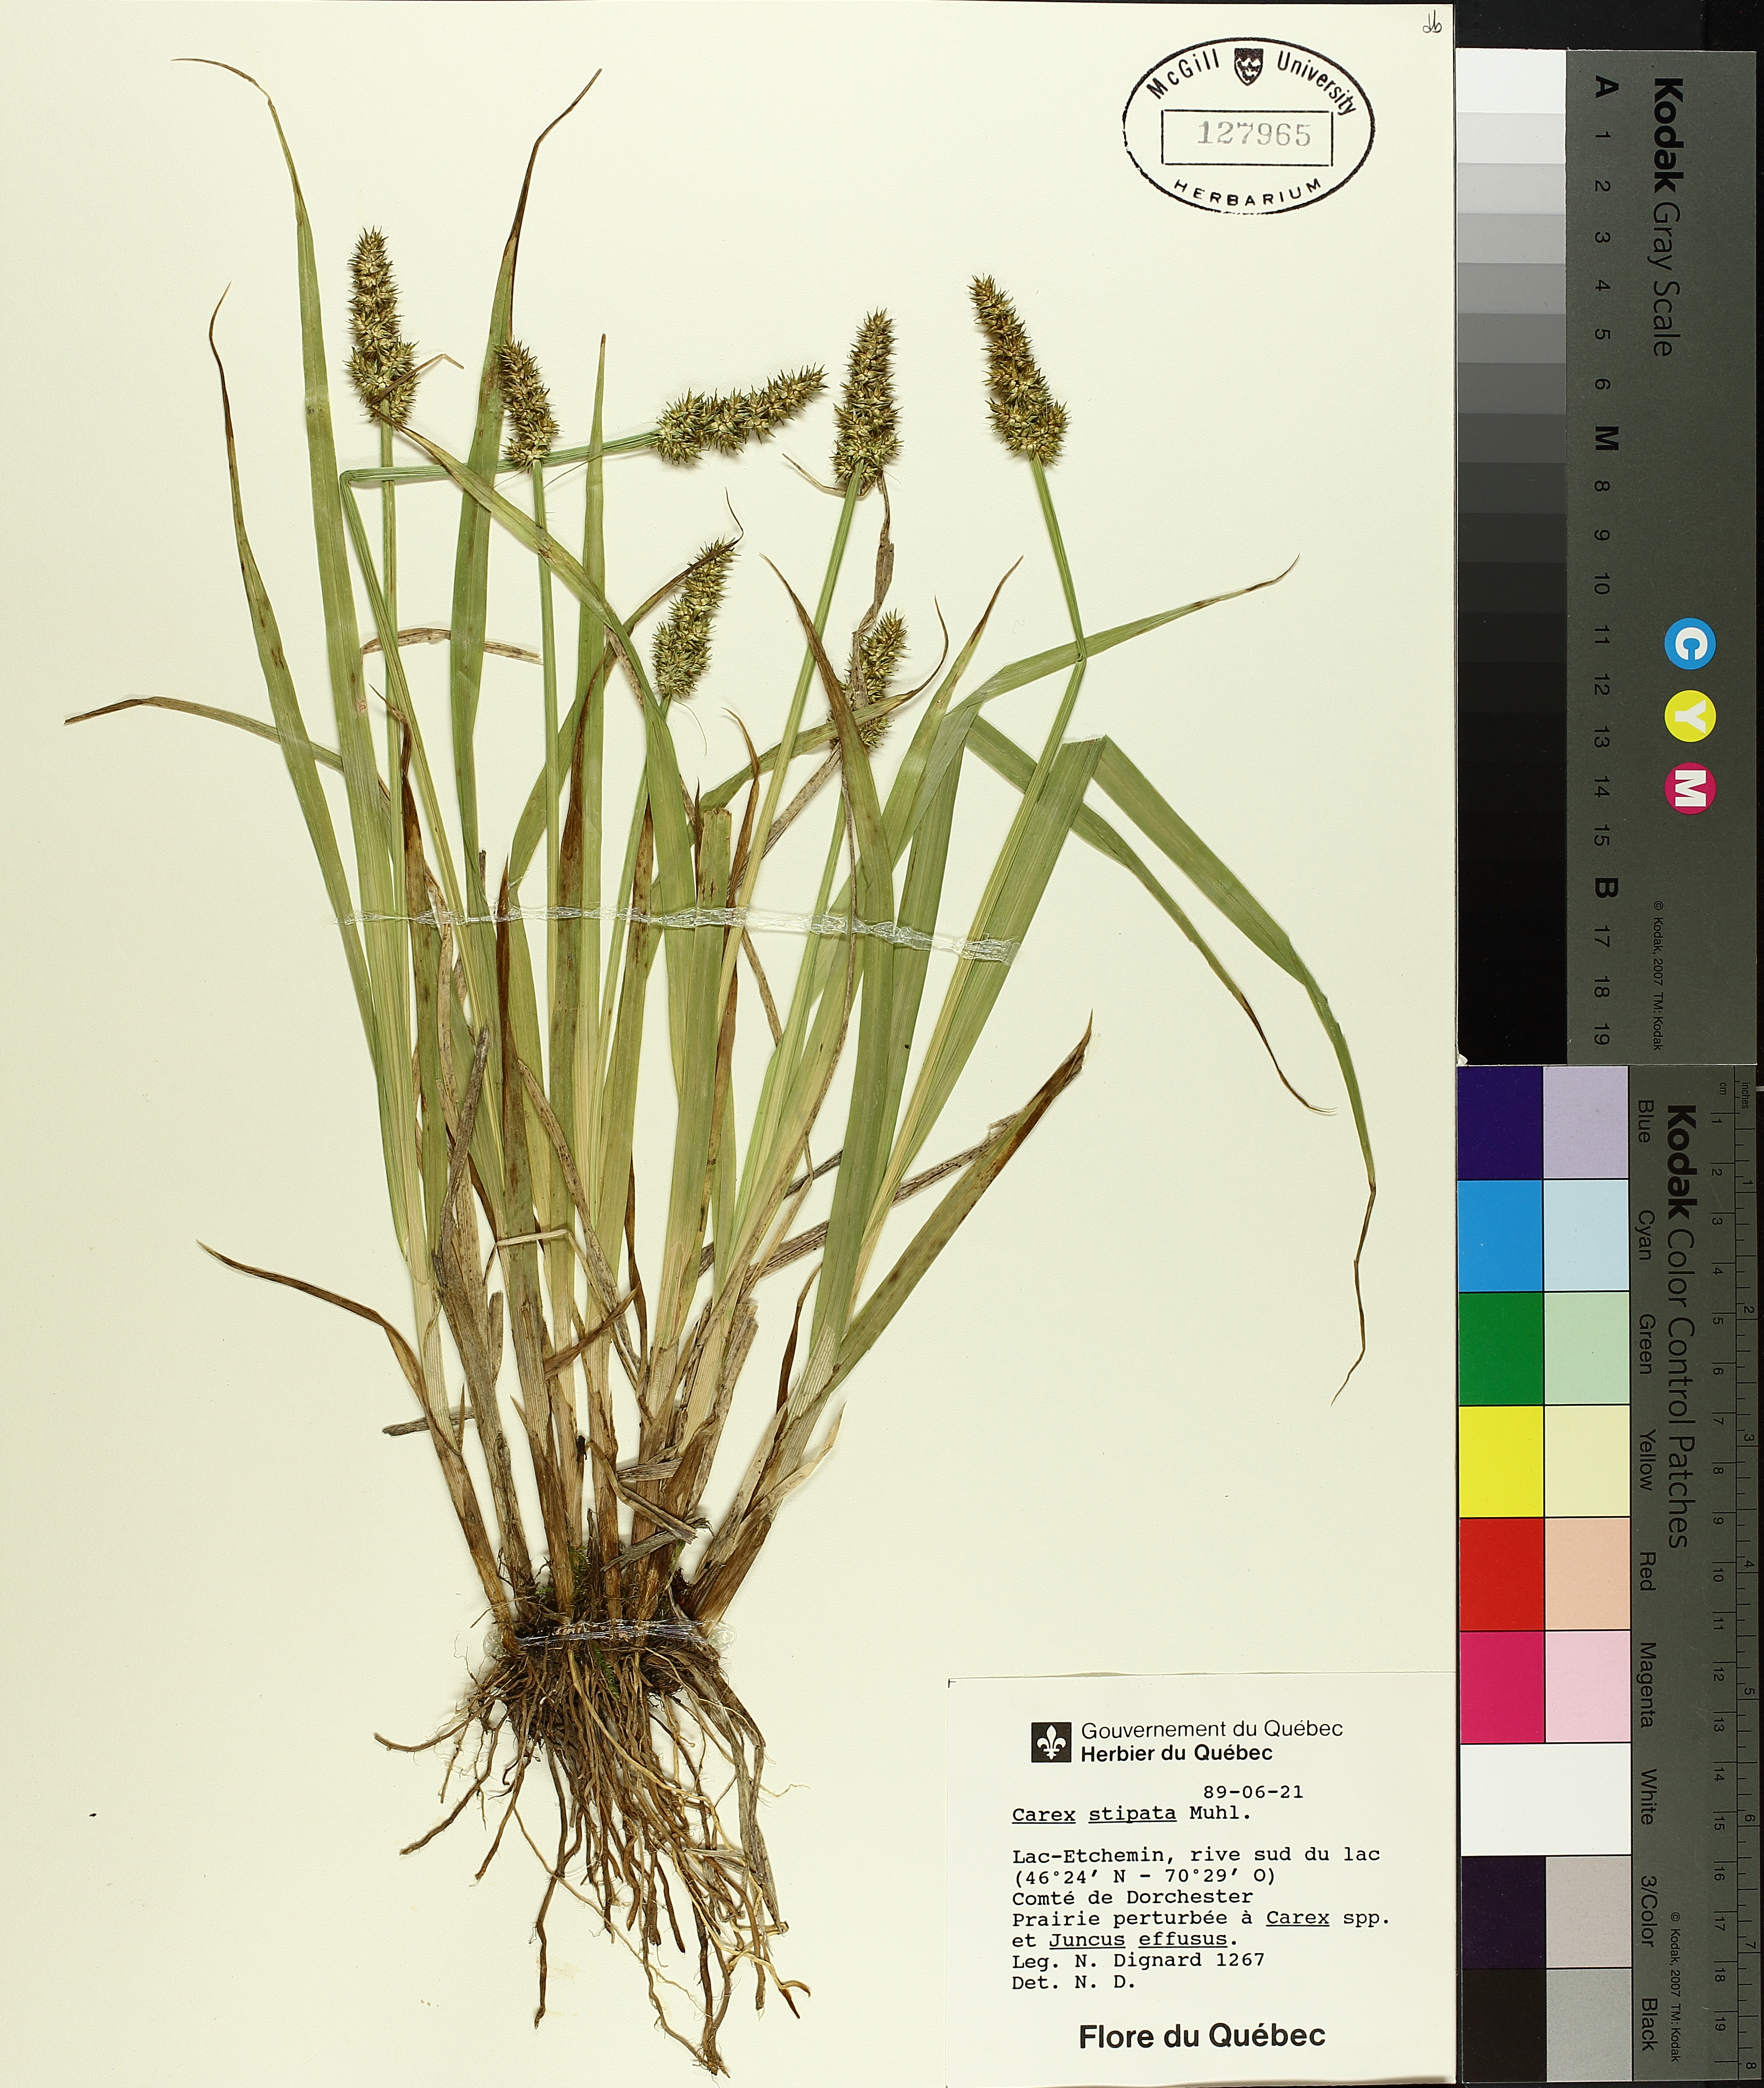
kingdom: Plantae
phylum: Tracheophyta
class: Liliopsida
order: Poales
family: Cyperaceae
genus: Carex
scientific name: Carex stipata
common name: Awl-fruited sedge
